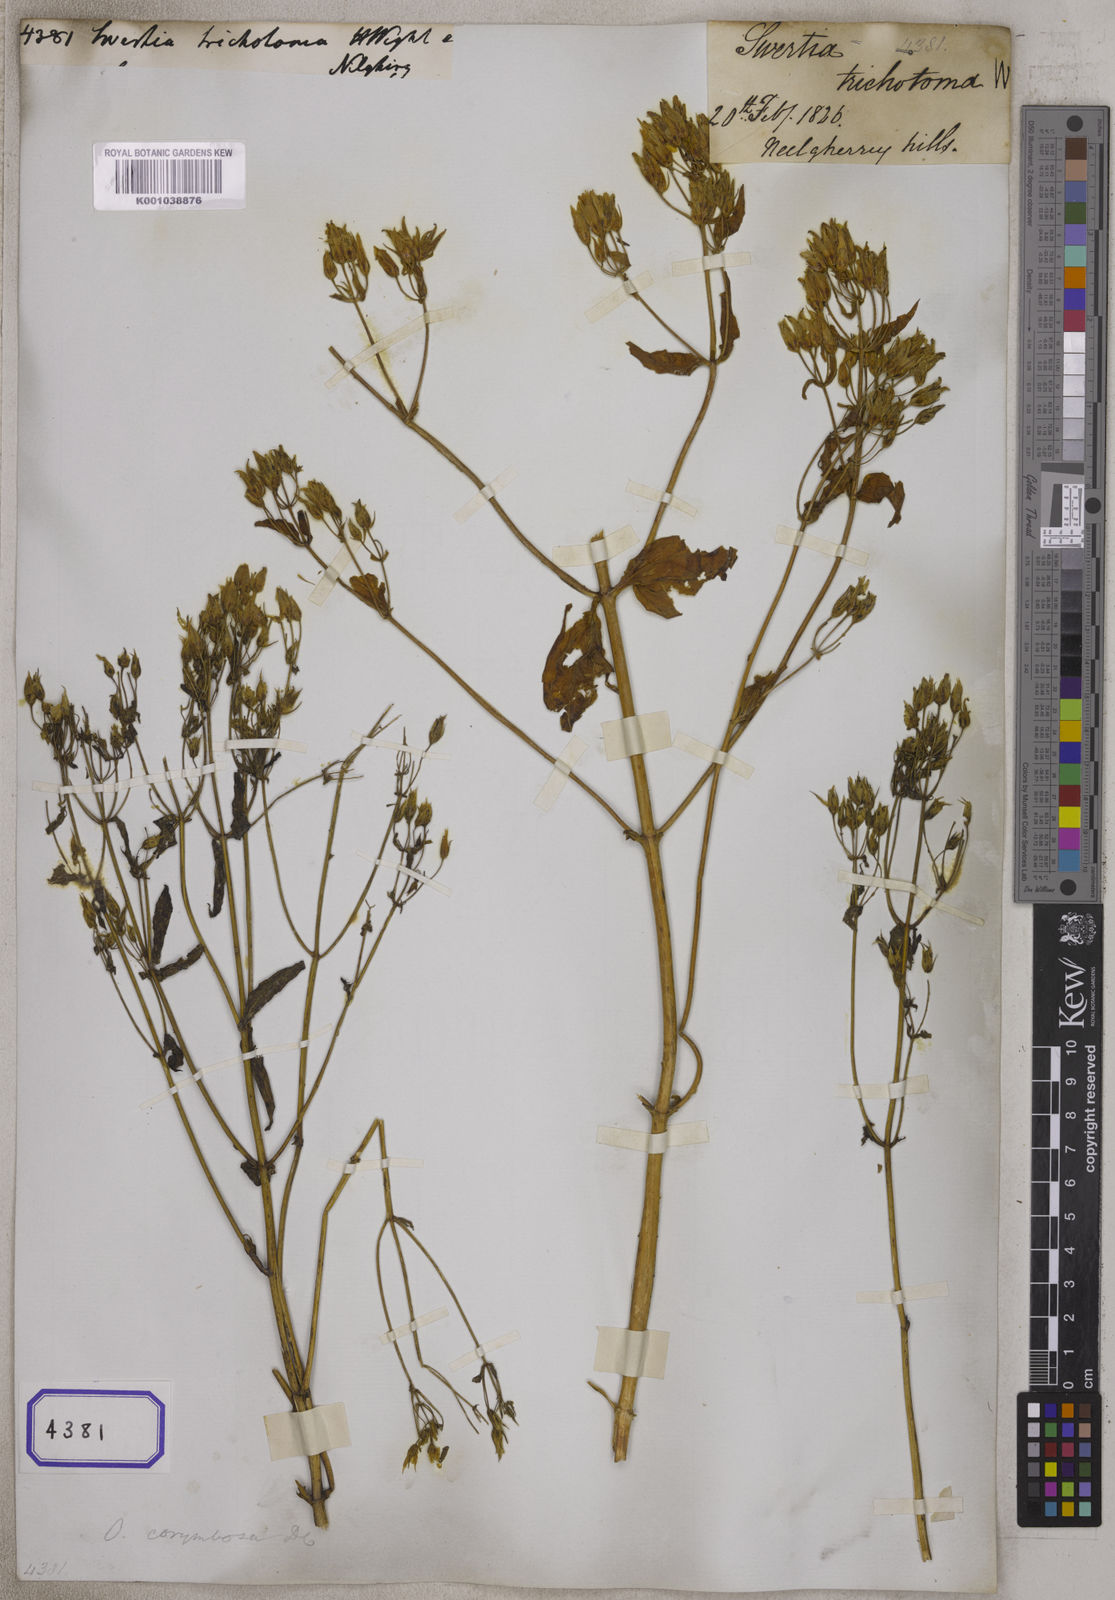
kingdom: Plantae
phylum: Tracheophyta
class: Magnoliopsida
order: Gentianales
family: Gentianaceae
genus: Swertia
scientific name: Swertia
